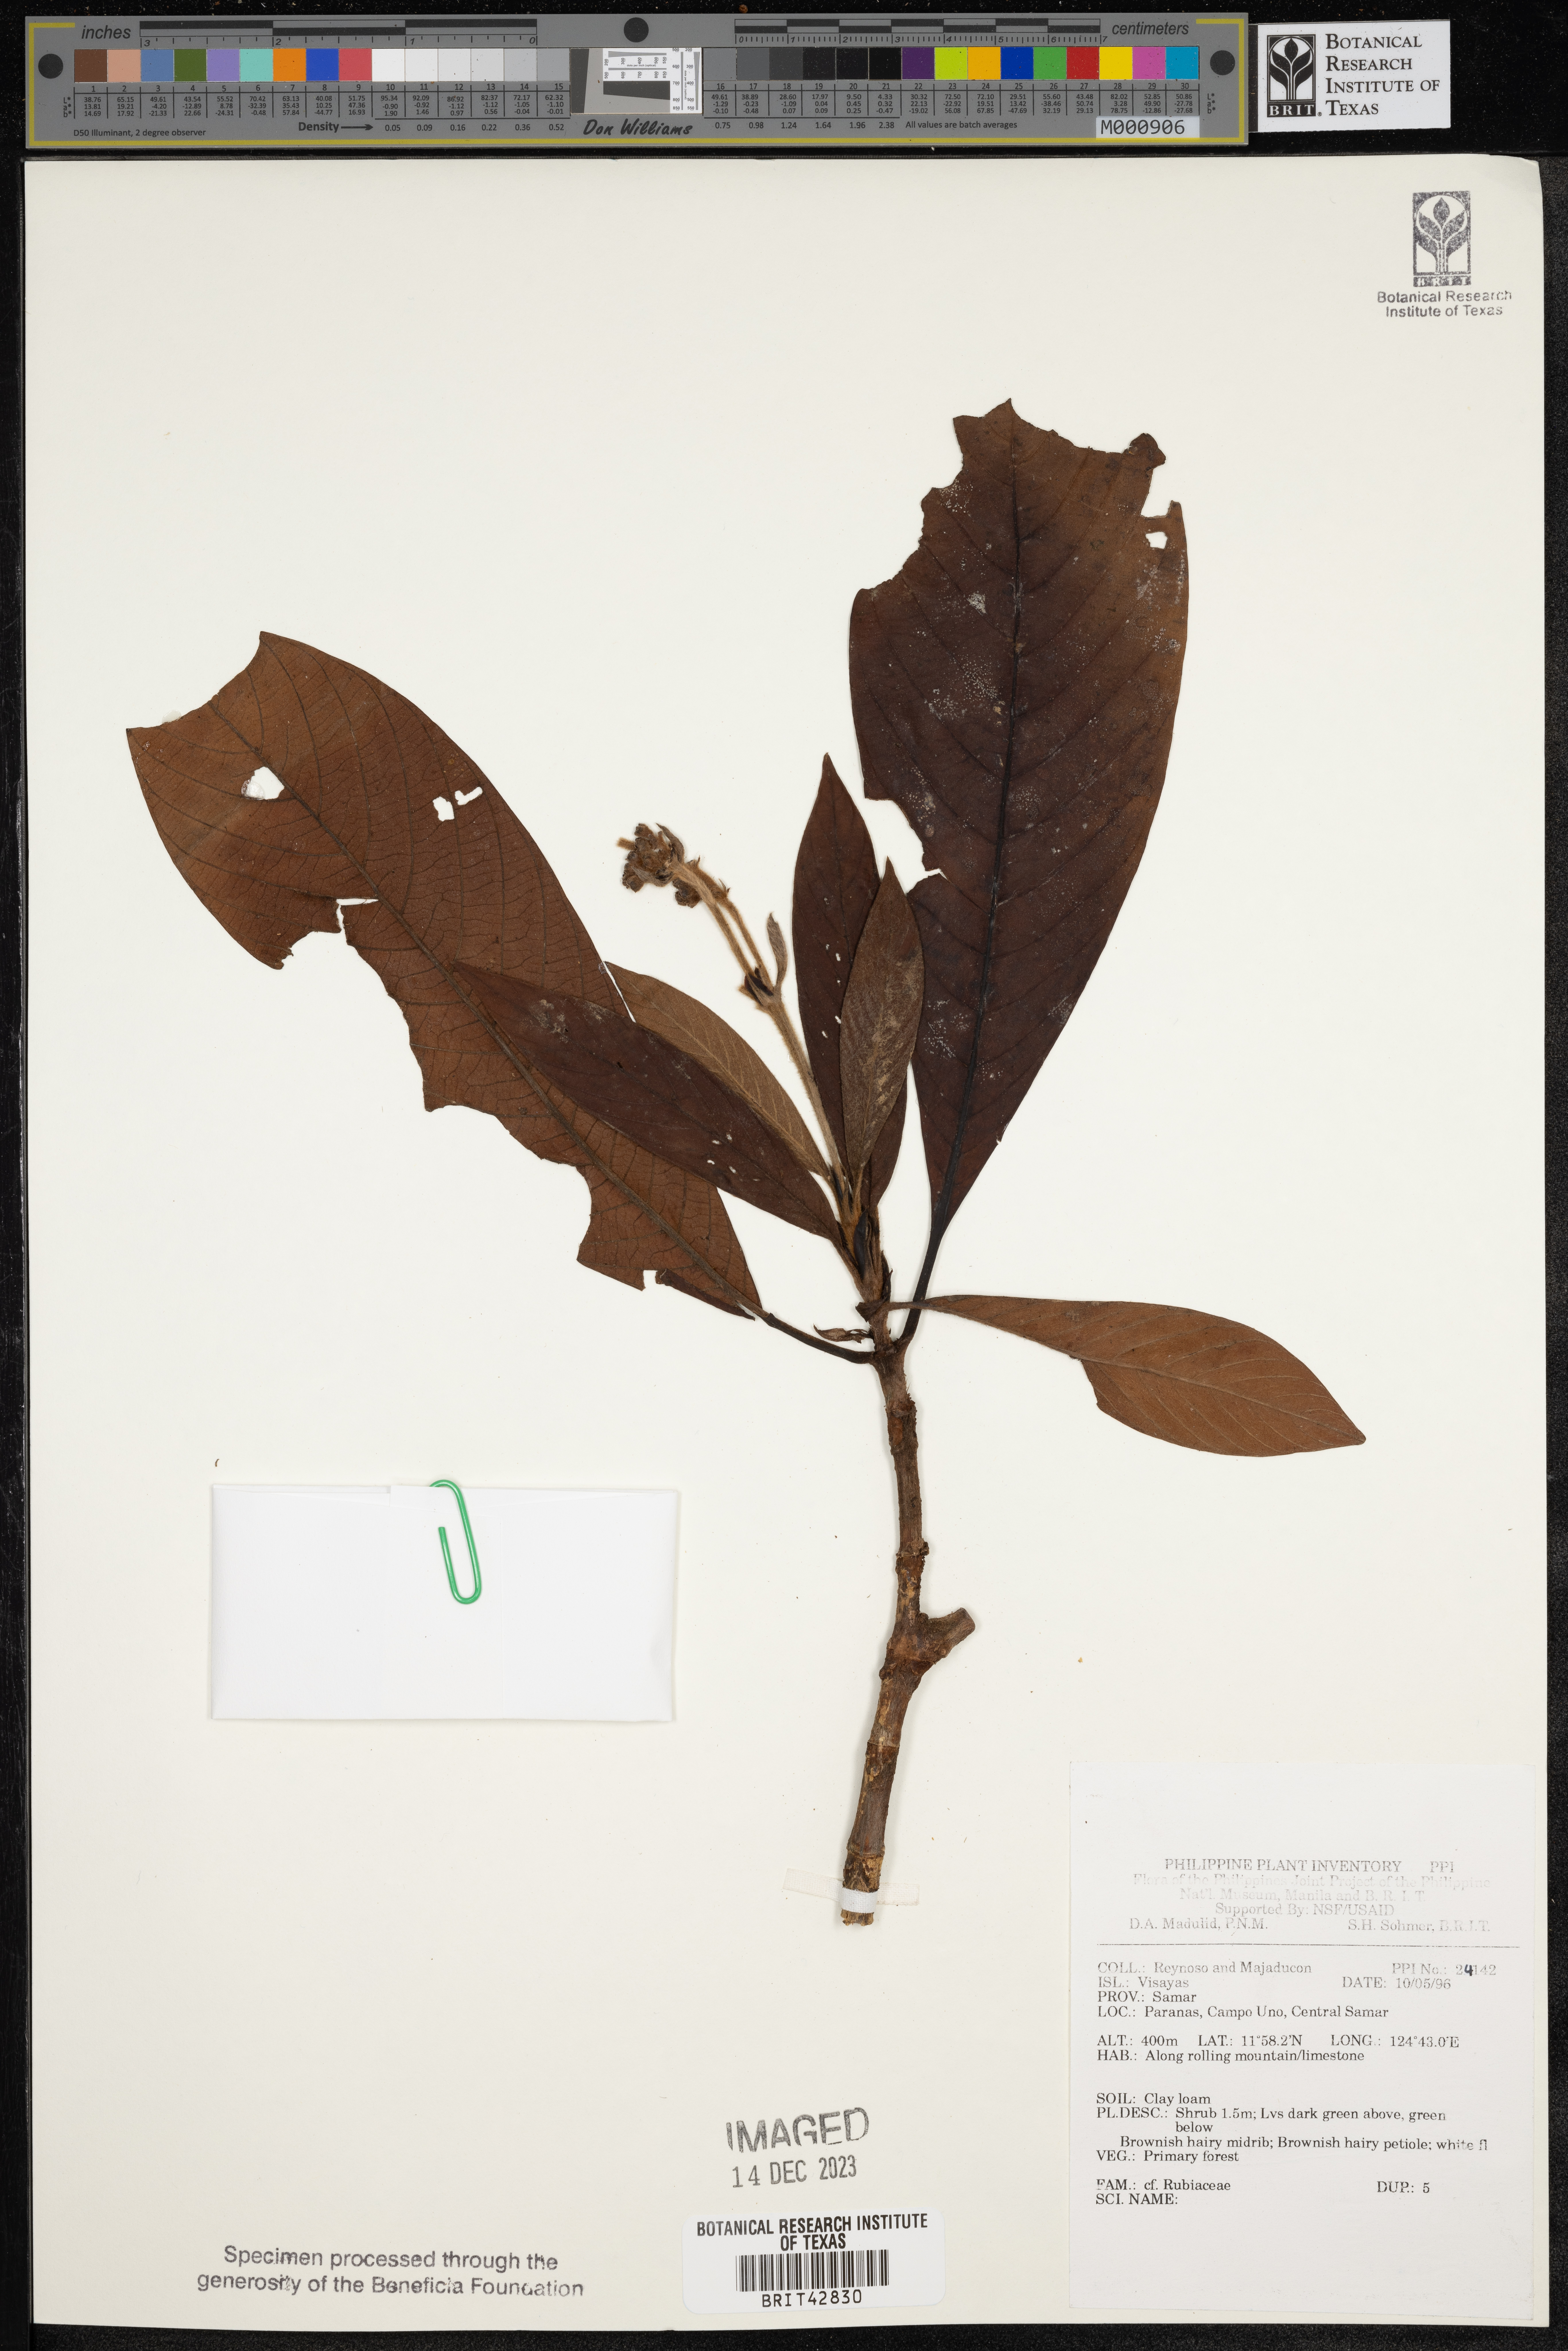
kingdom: Plantae
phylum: Tracheophyta
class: Magnoliopsida
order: Gentianales
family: Rubiaceae
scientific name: Rubiaceae
